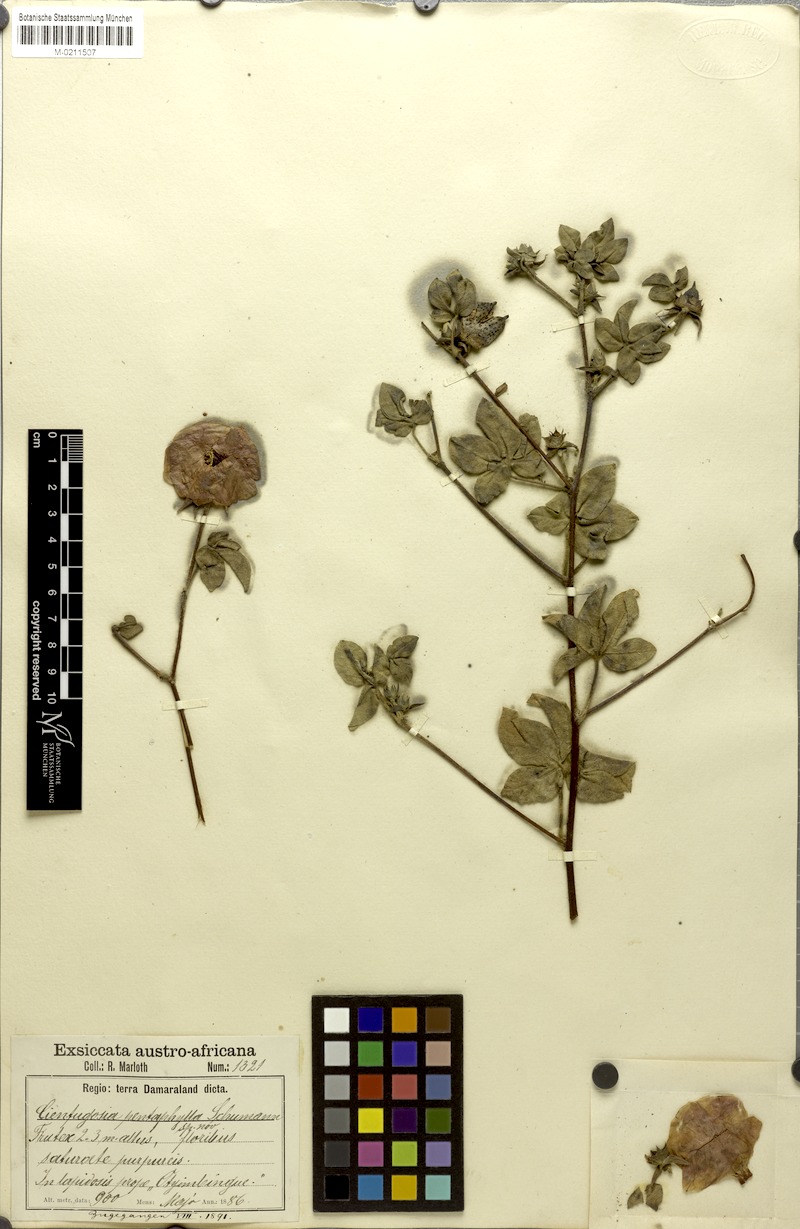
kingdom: Plantae
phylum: Tracheophyta
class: Magnoliopsida
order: Malvales
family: Malvaceae
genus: Gossypium
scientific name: Gossypium anomalum
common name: African wild cotton
